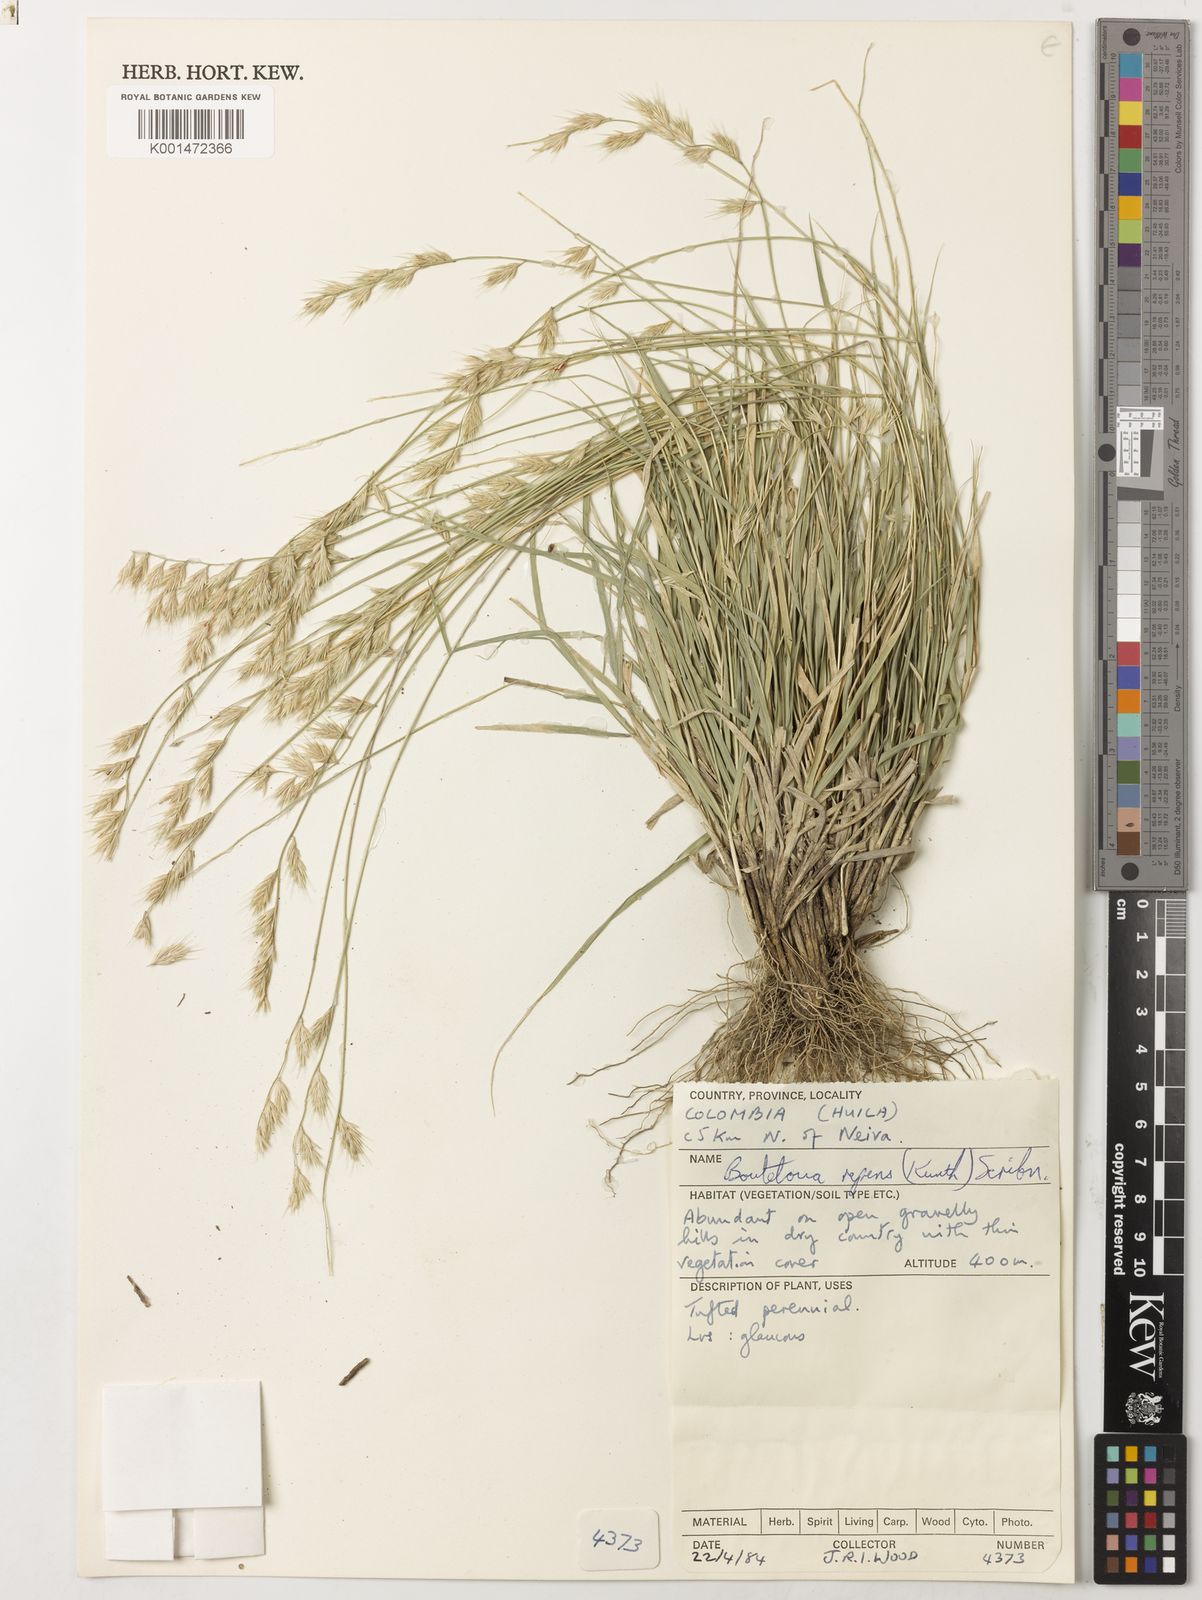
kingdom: Plantae
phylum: Tracheophyta
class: Liliopsida
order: Poales
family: Poaceae
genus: Bouteloua
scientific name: Bouteloua repens
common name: Slender grama
